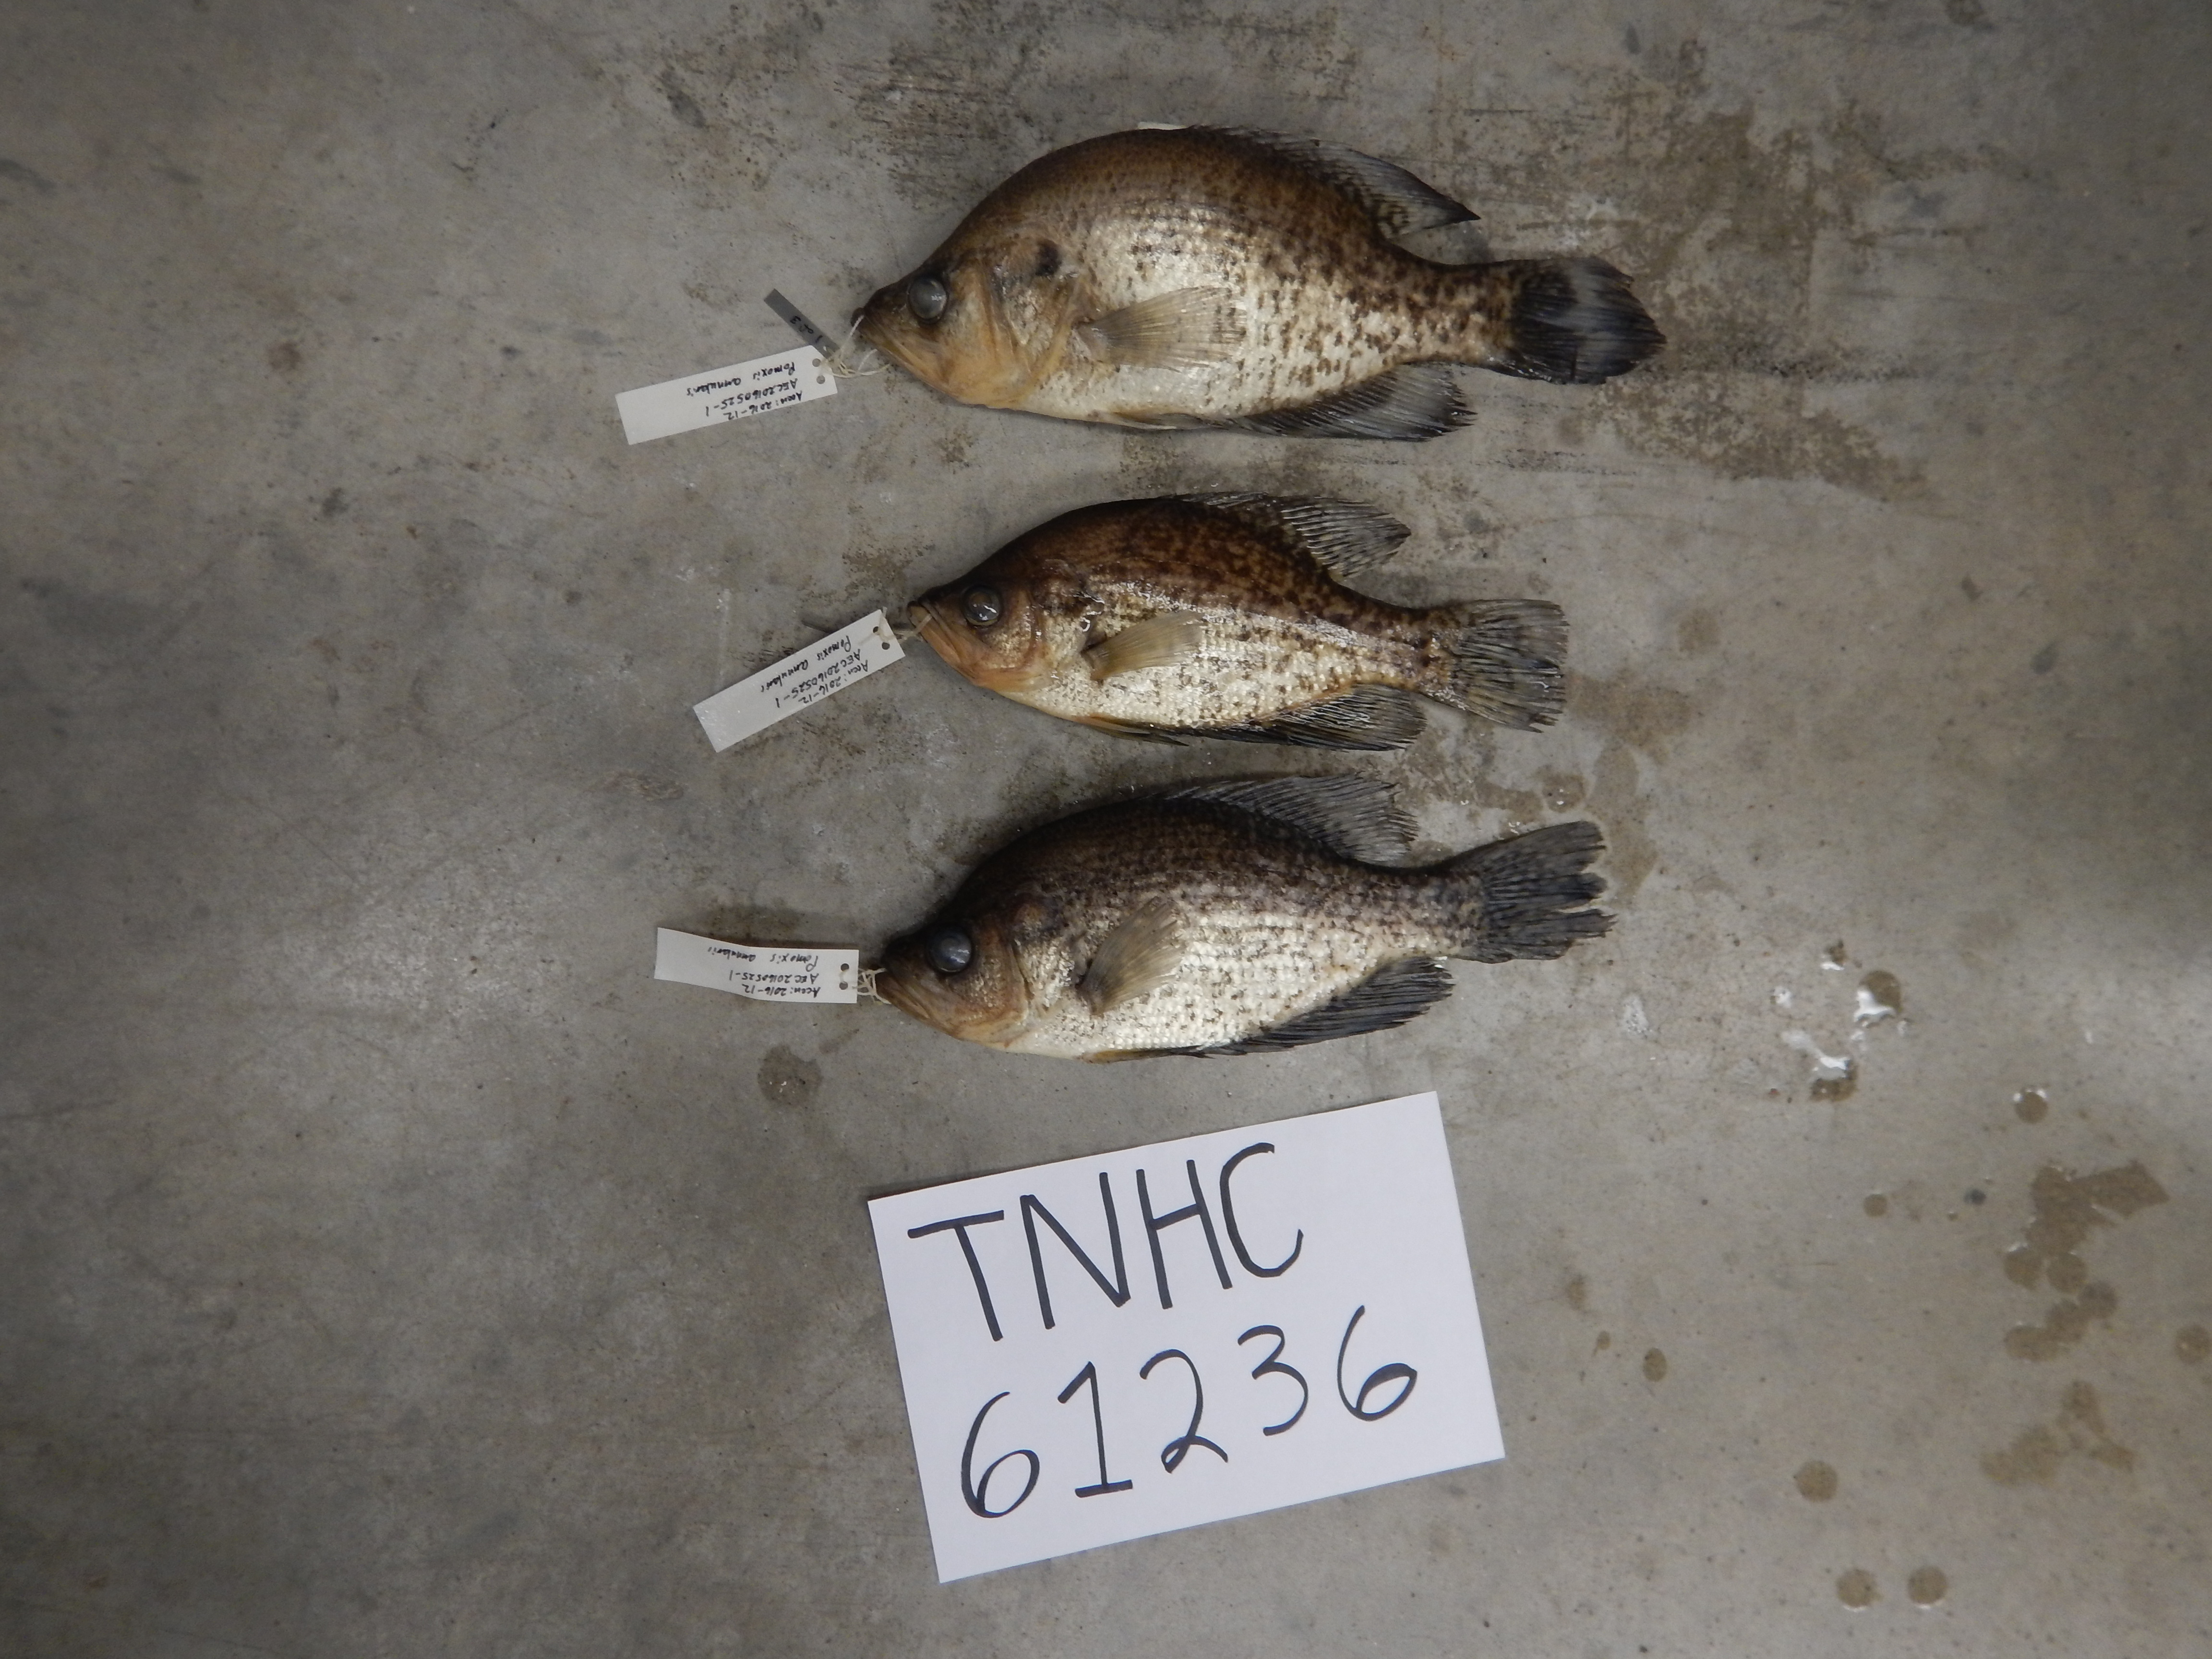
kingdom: Animalia
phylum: Chordata
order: Perciformes
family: Centrarchidae
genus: Pomoxis
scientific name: Pomoxis annularis
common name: White crappie
